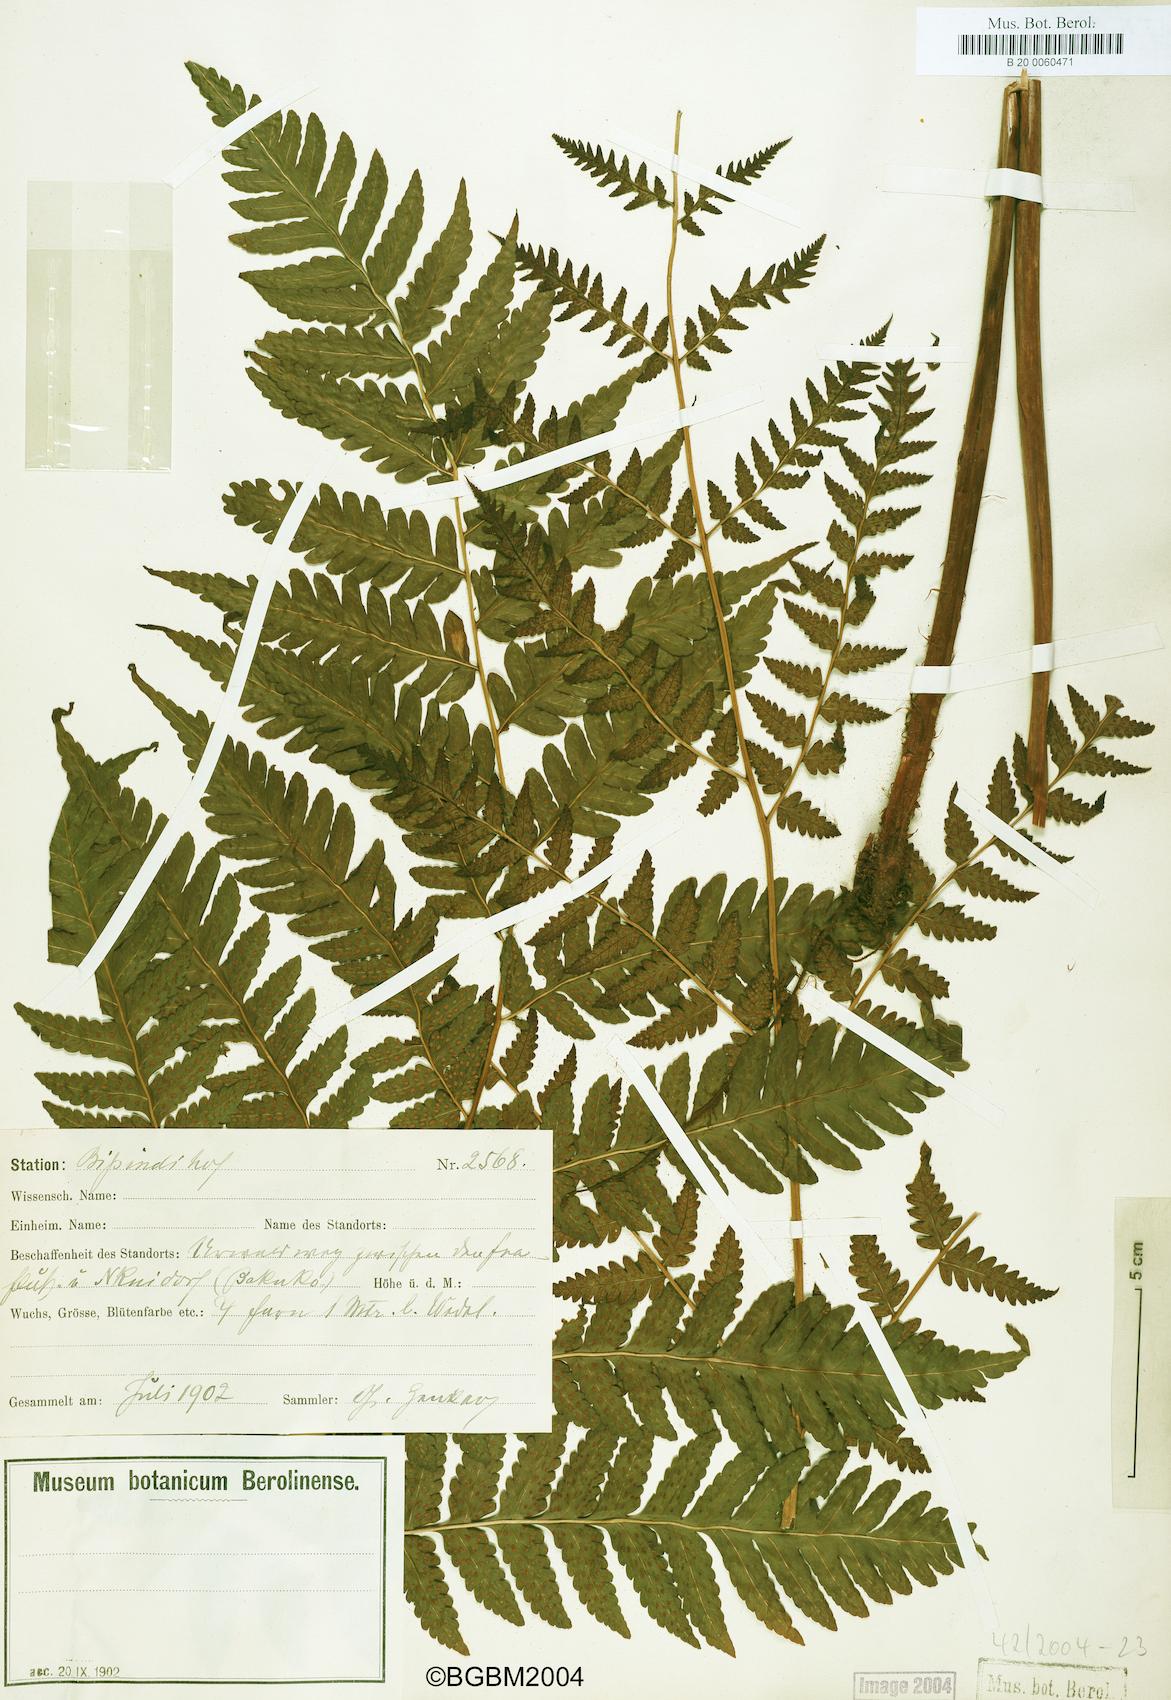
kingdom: Plantae
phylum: Tracheophyta
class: Polypodiopsida
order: Polypodiales
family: Dryopteridaceae
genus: Parapolystichum
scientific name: Parapolystichum nigritianum
